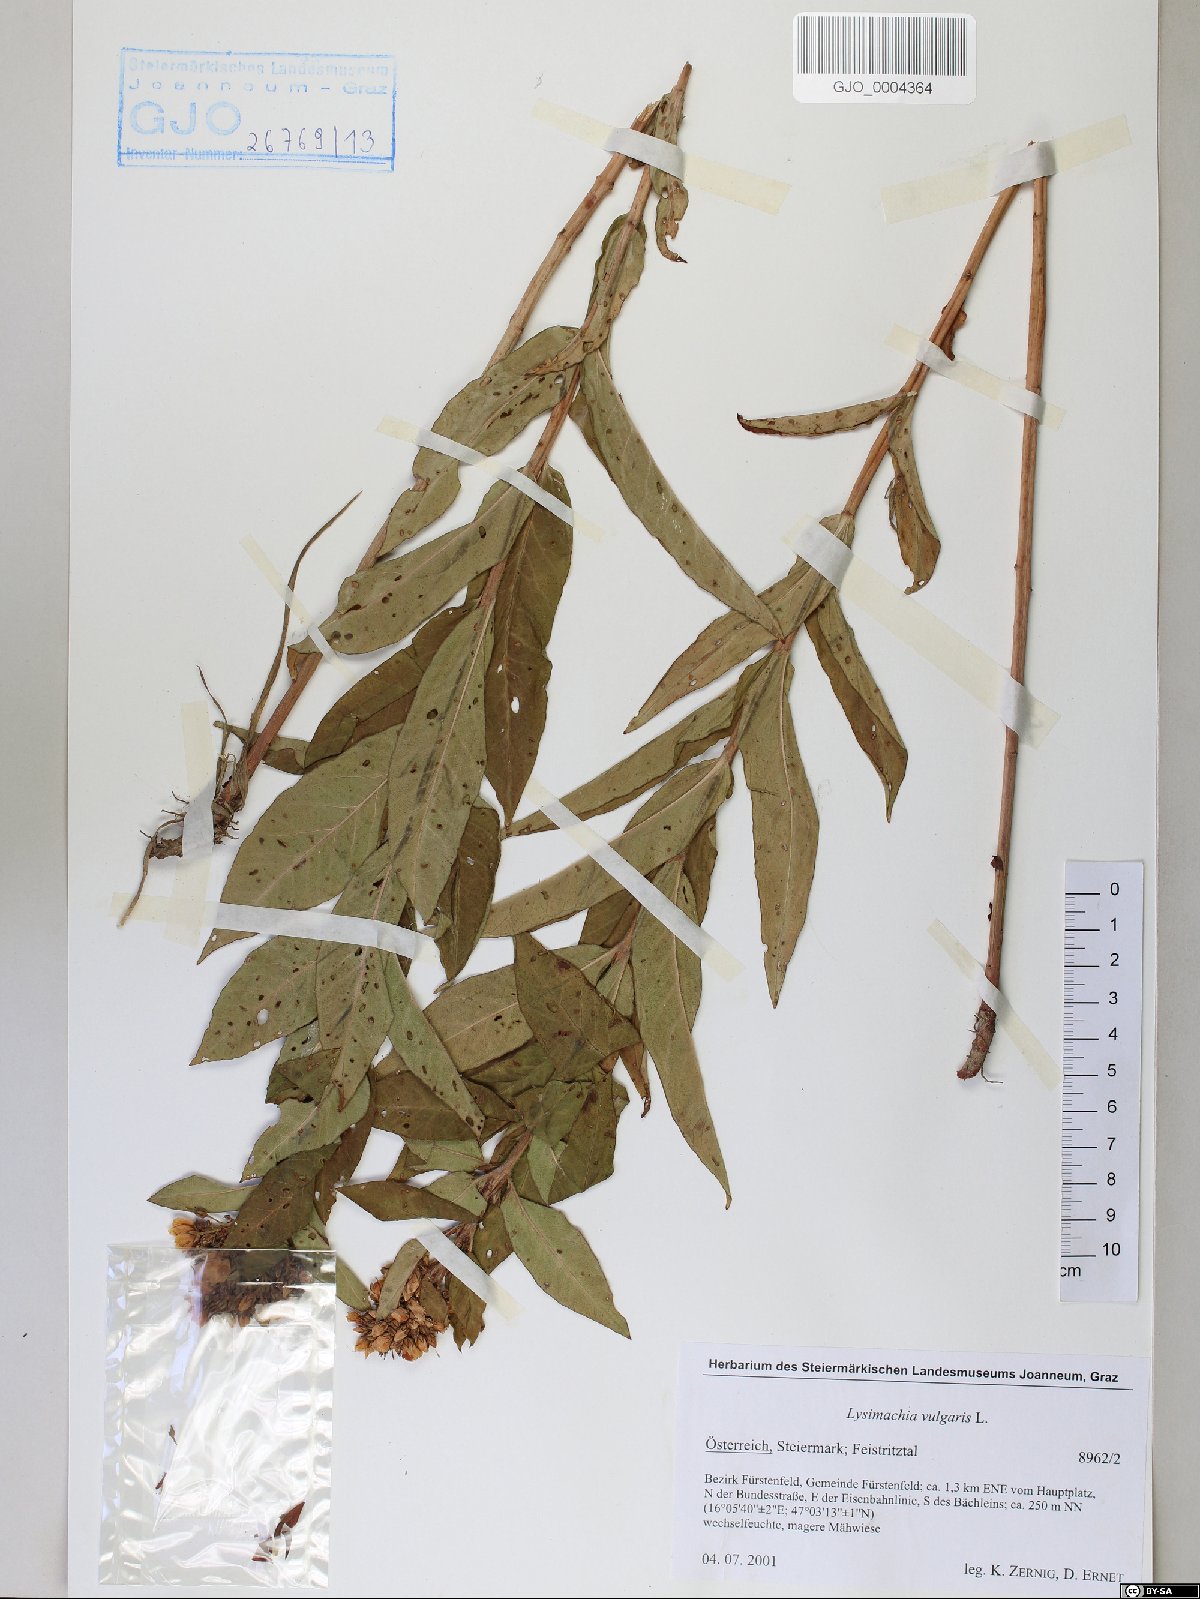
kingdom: Plantae
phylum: Tracheophyta
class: Magnoliopsida
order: Ericales
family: Primulaceae
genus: Lysimachia
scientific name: Lysimachia vulgaris
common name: Yellow loosestrife
